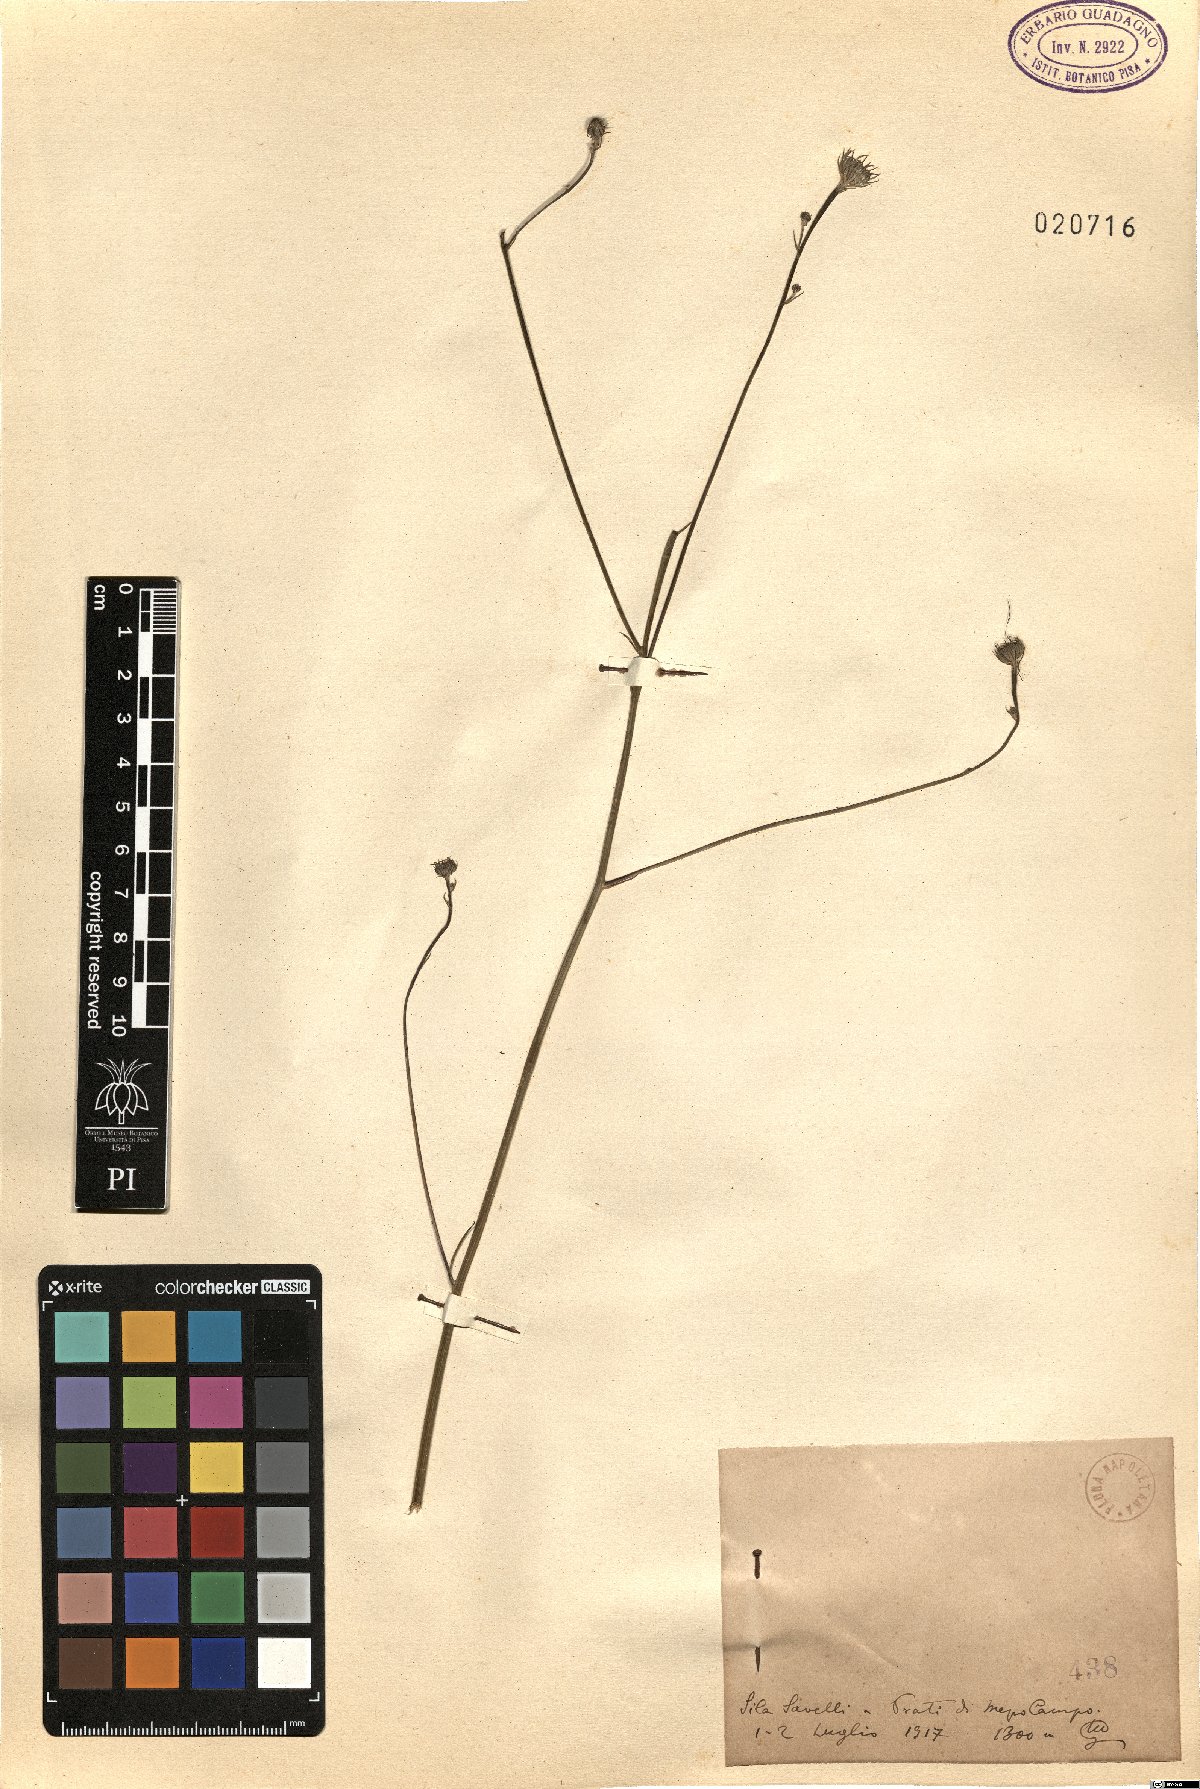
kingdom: Plantae
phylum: Tracheophyta
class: Magnoliopsida
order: Asterales
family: Asteraceae
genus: Tolpis
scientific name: Tolpis
